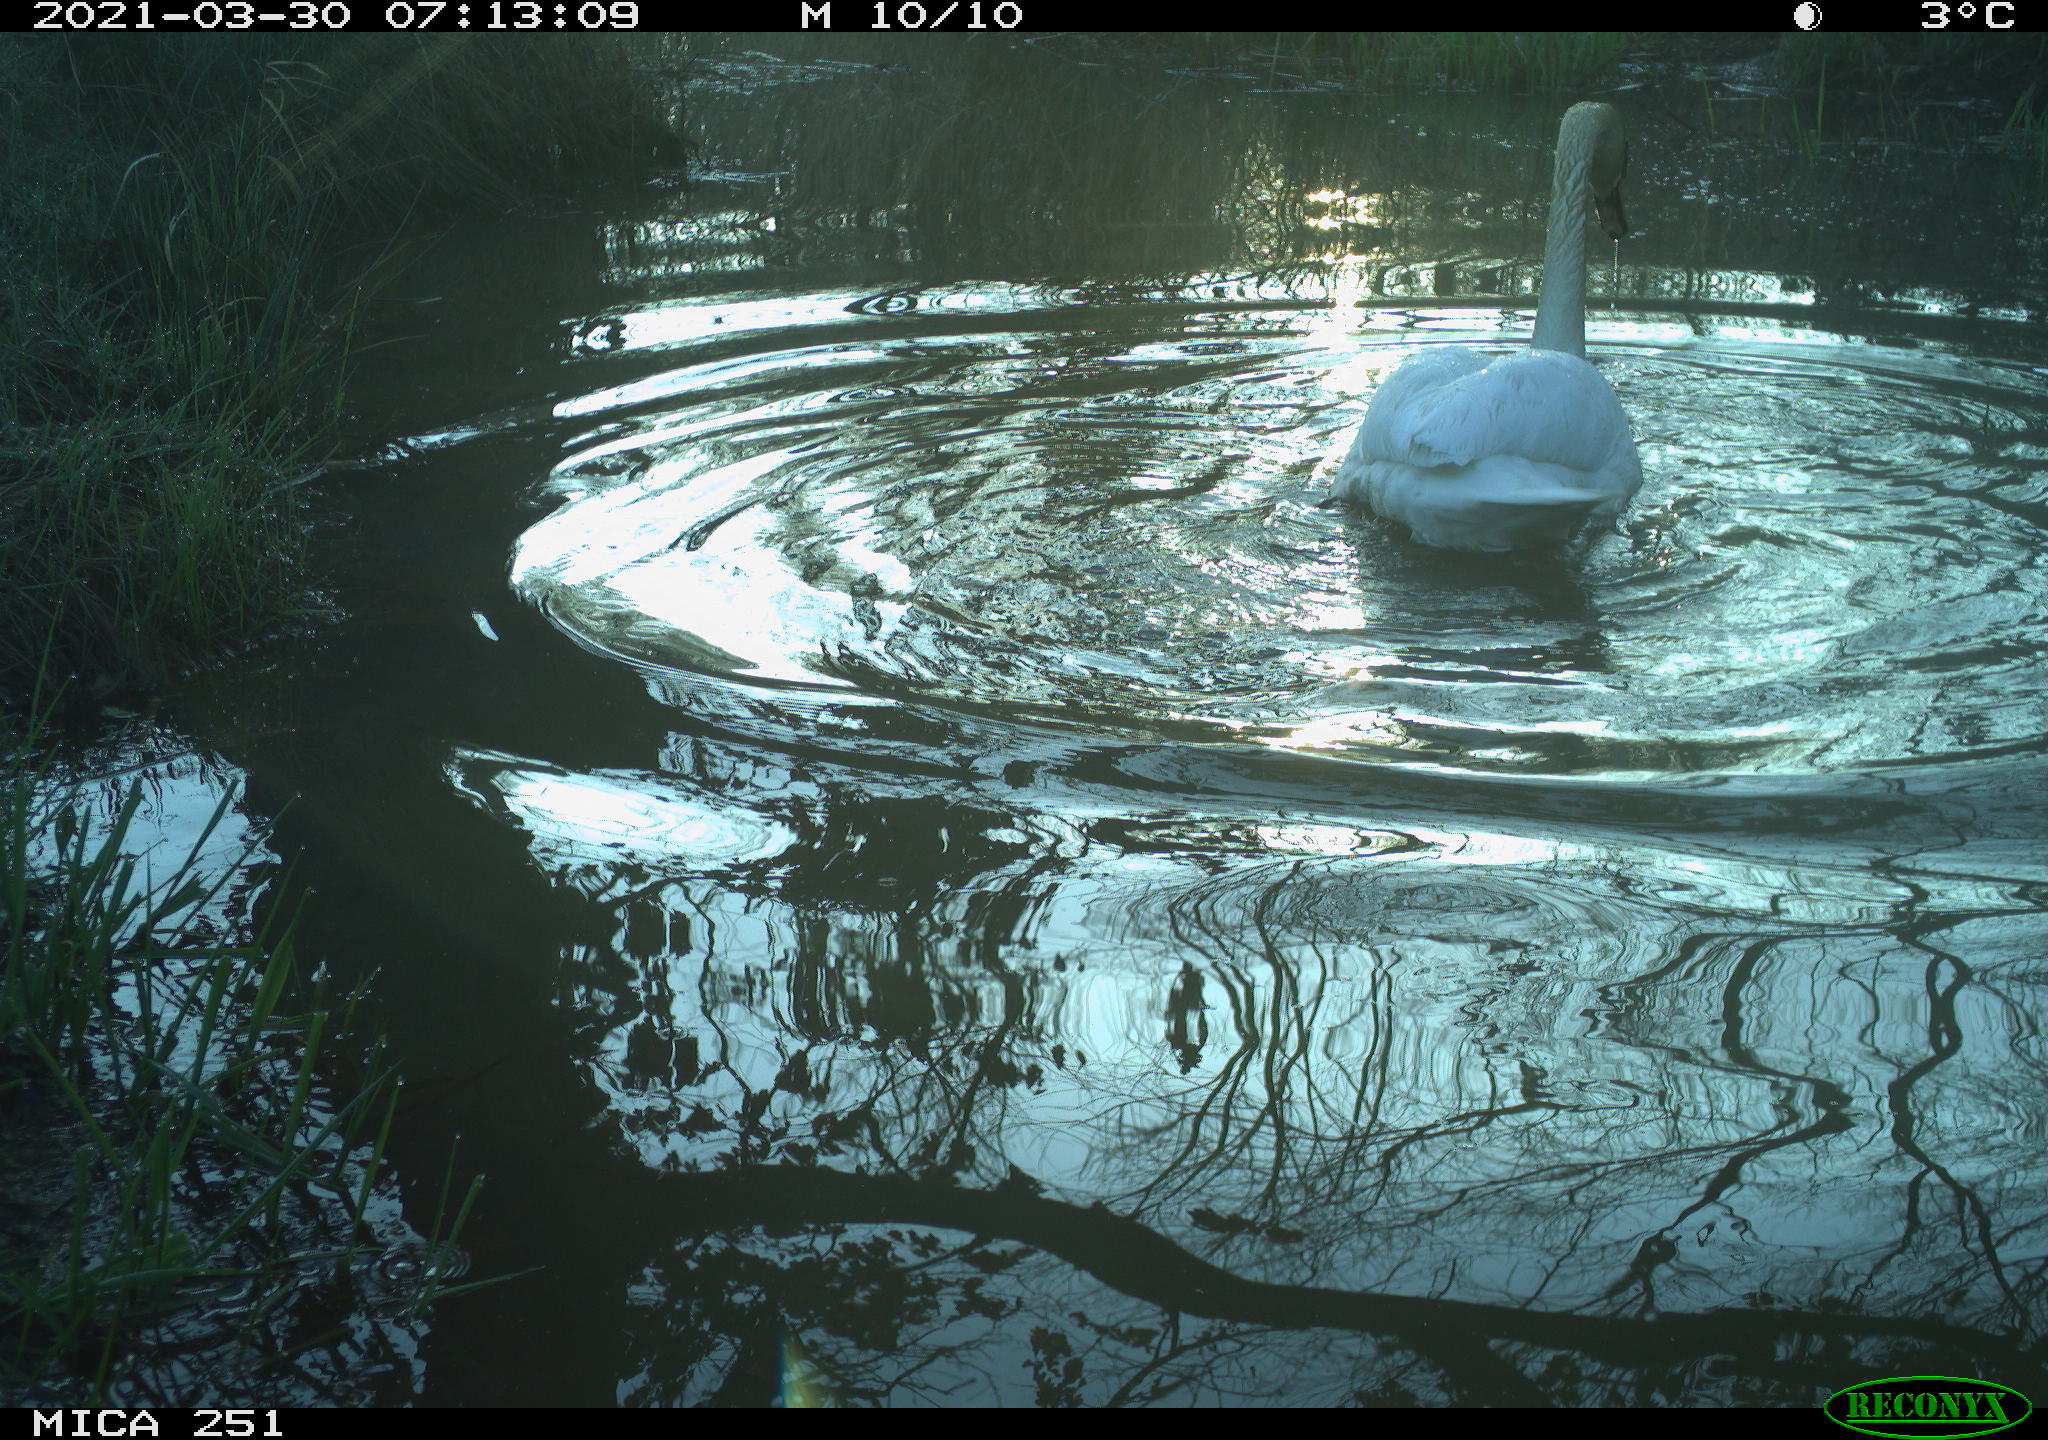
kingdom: Animalia
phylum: Chordata
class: Aves
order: Gruiformes
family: Rallidae
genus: Fulica
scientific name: Fulica atra
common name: Eurasian coot
